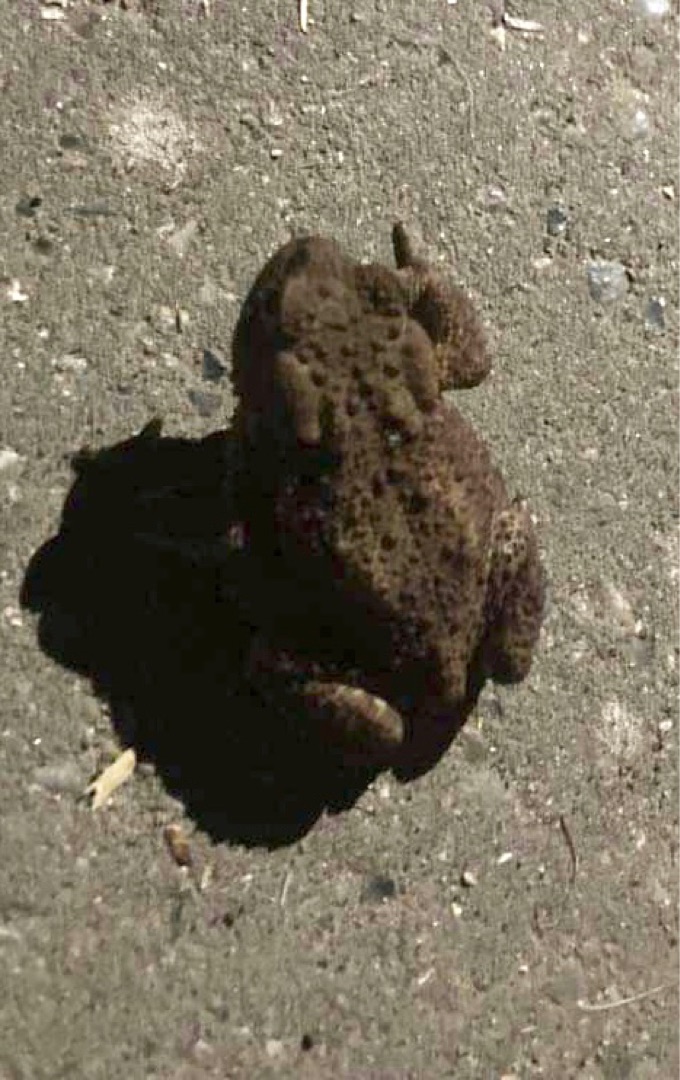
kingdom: Animalia
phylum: Chordata
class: Amphibia
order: Anura
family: Bufonidae
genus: Bufo
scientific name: Bufo bufo
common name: Skrubtudse
